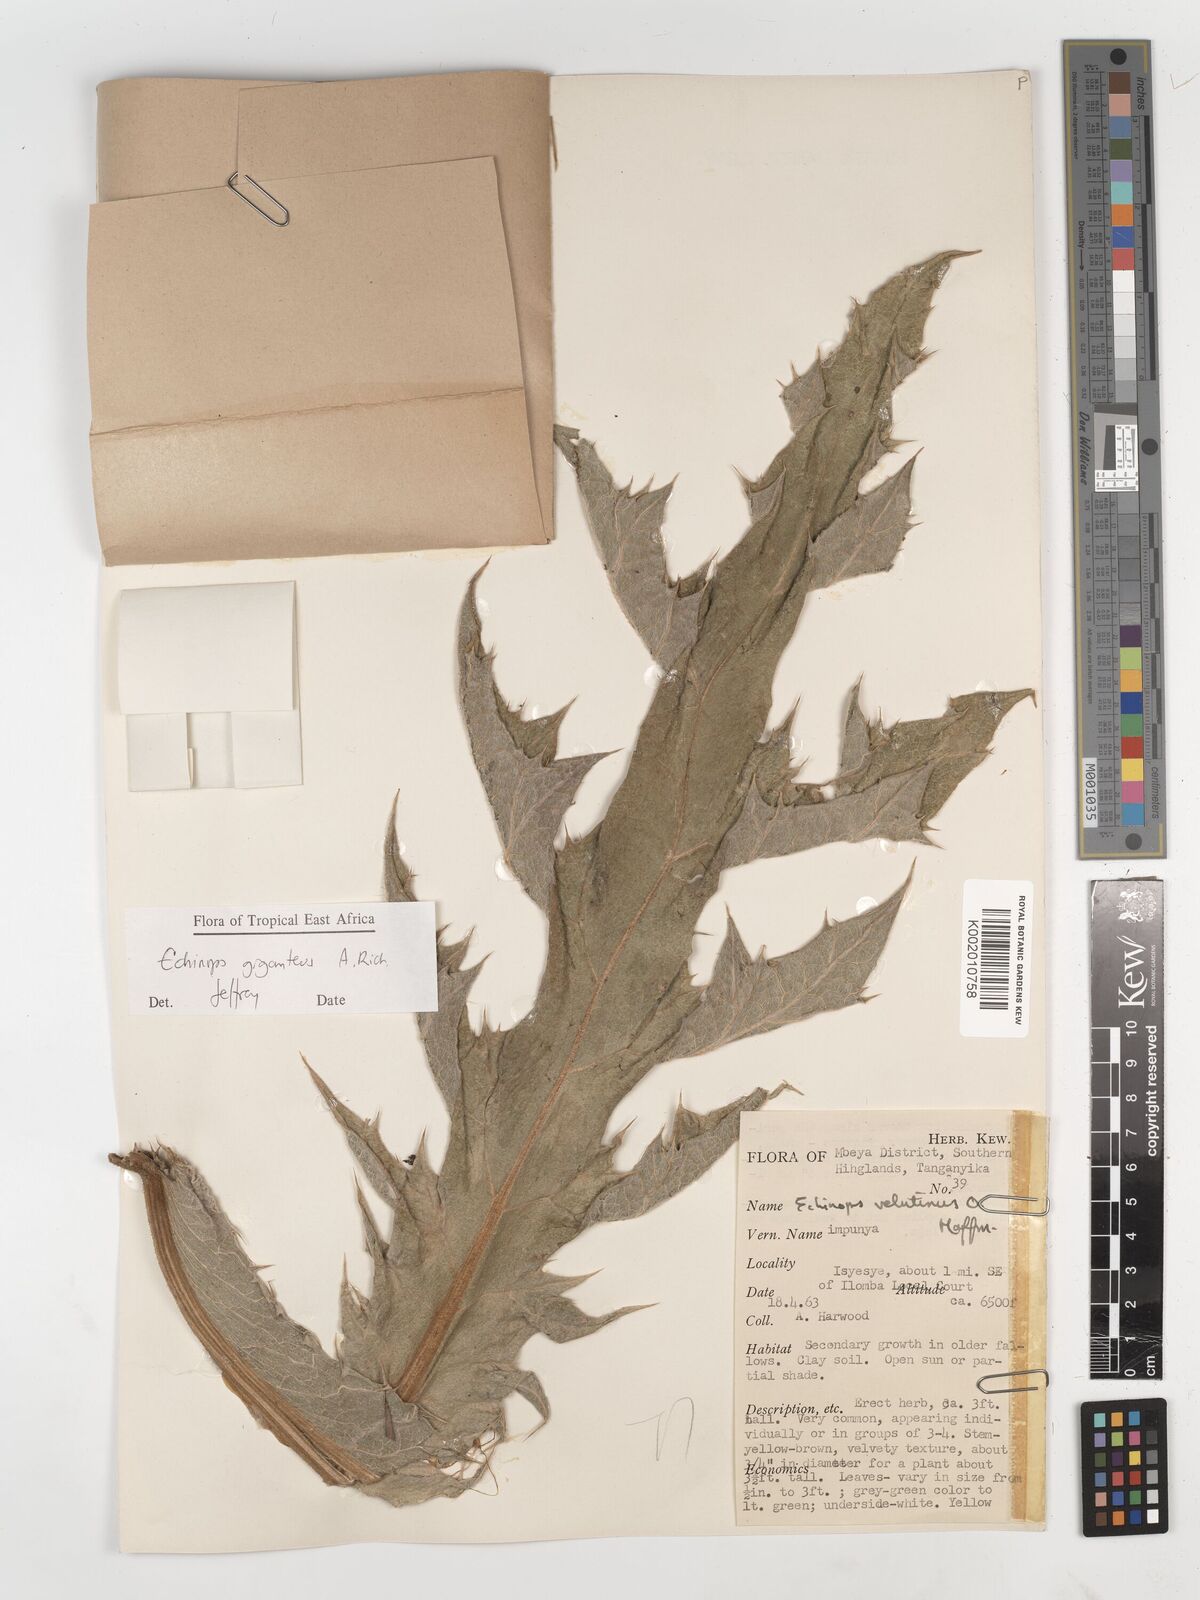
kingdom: Plantae
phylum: Tracheophyta
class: Magnoliopsida
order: Asterales
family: Asteraceae
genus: Echinops
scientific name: Echinops giganteus
